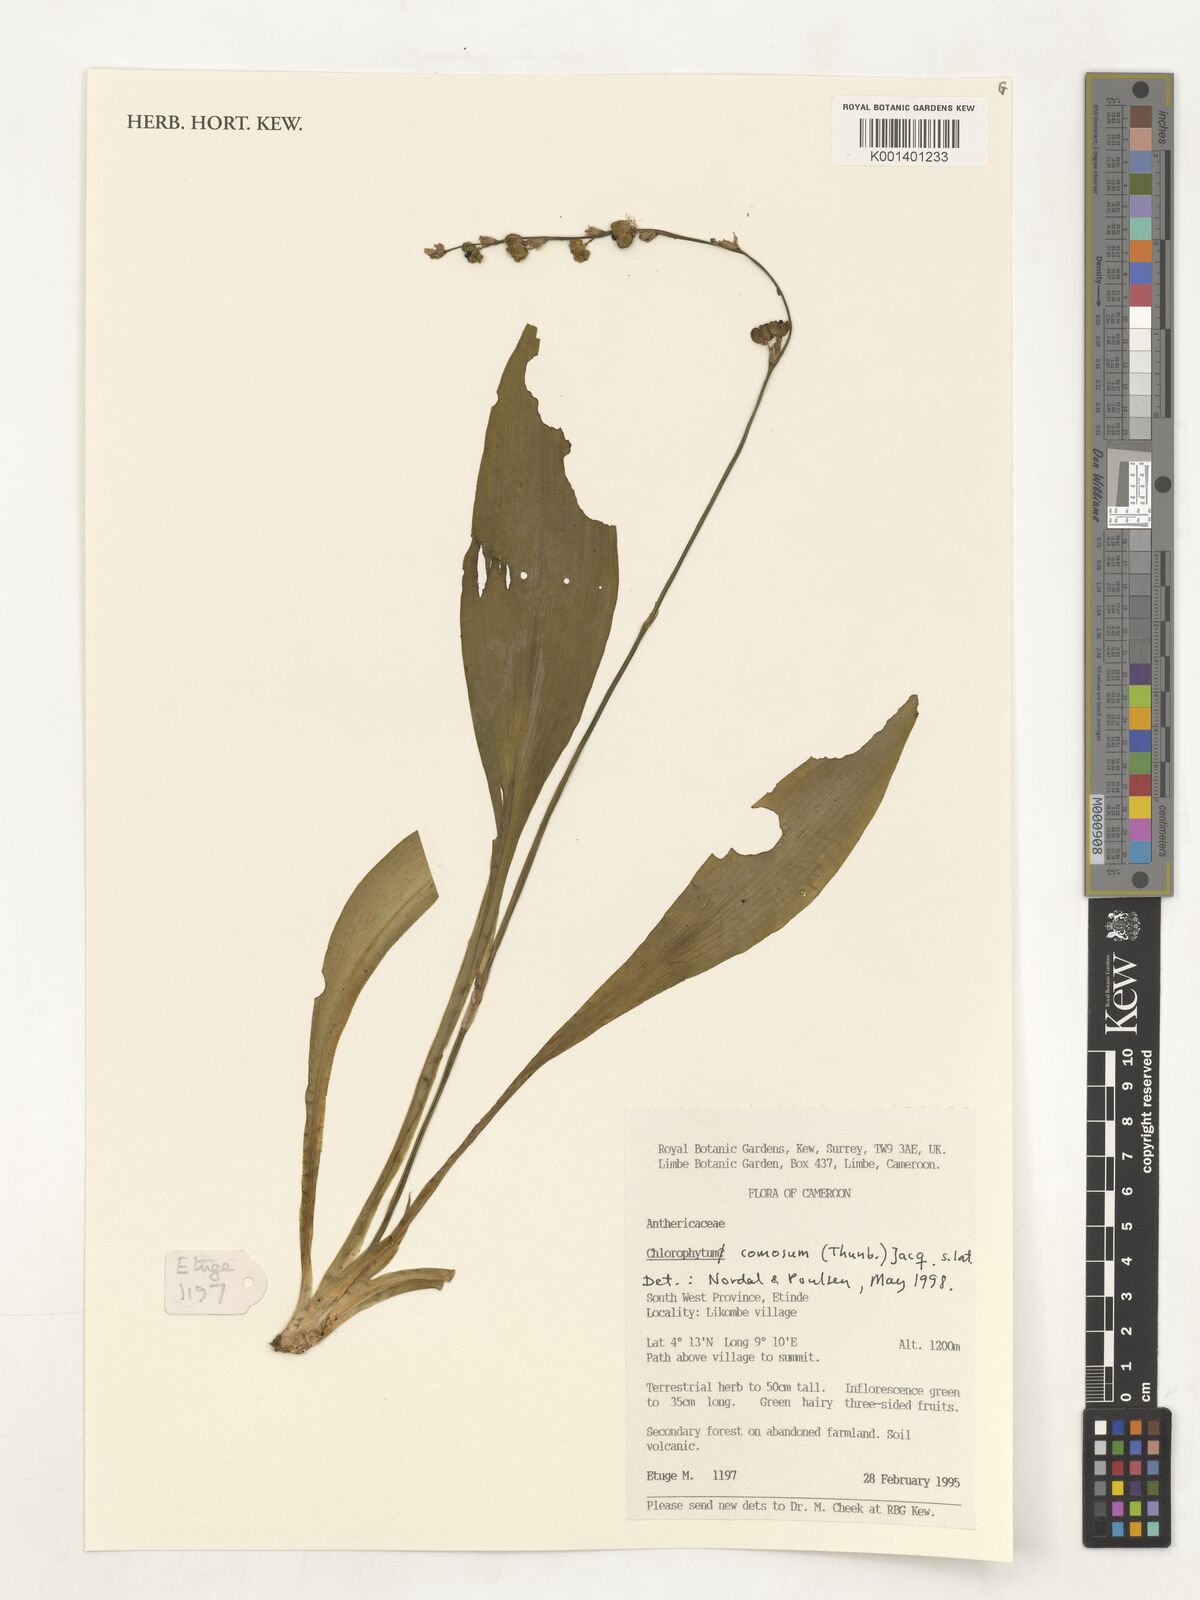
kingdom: Plantae
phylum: Tracheophyta
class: Liliopsida
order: Asparagales
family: Asparagaceae
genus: Chlorophytum
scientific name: Chlorophytum comosum
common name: Spider plant
